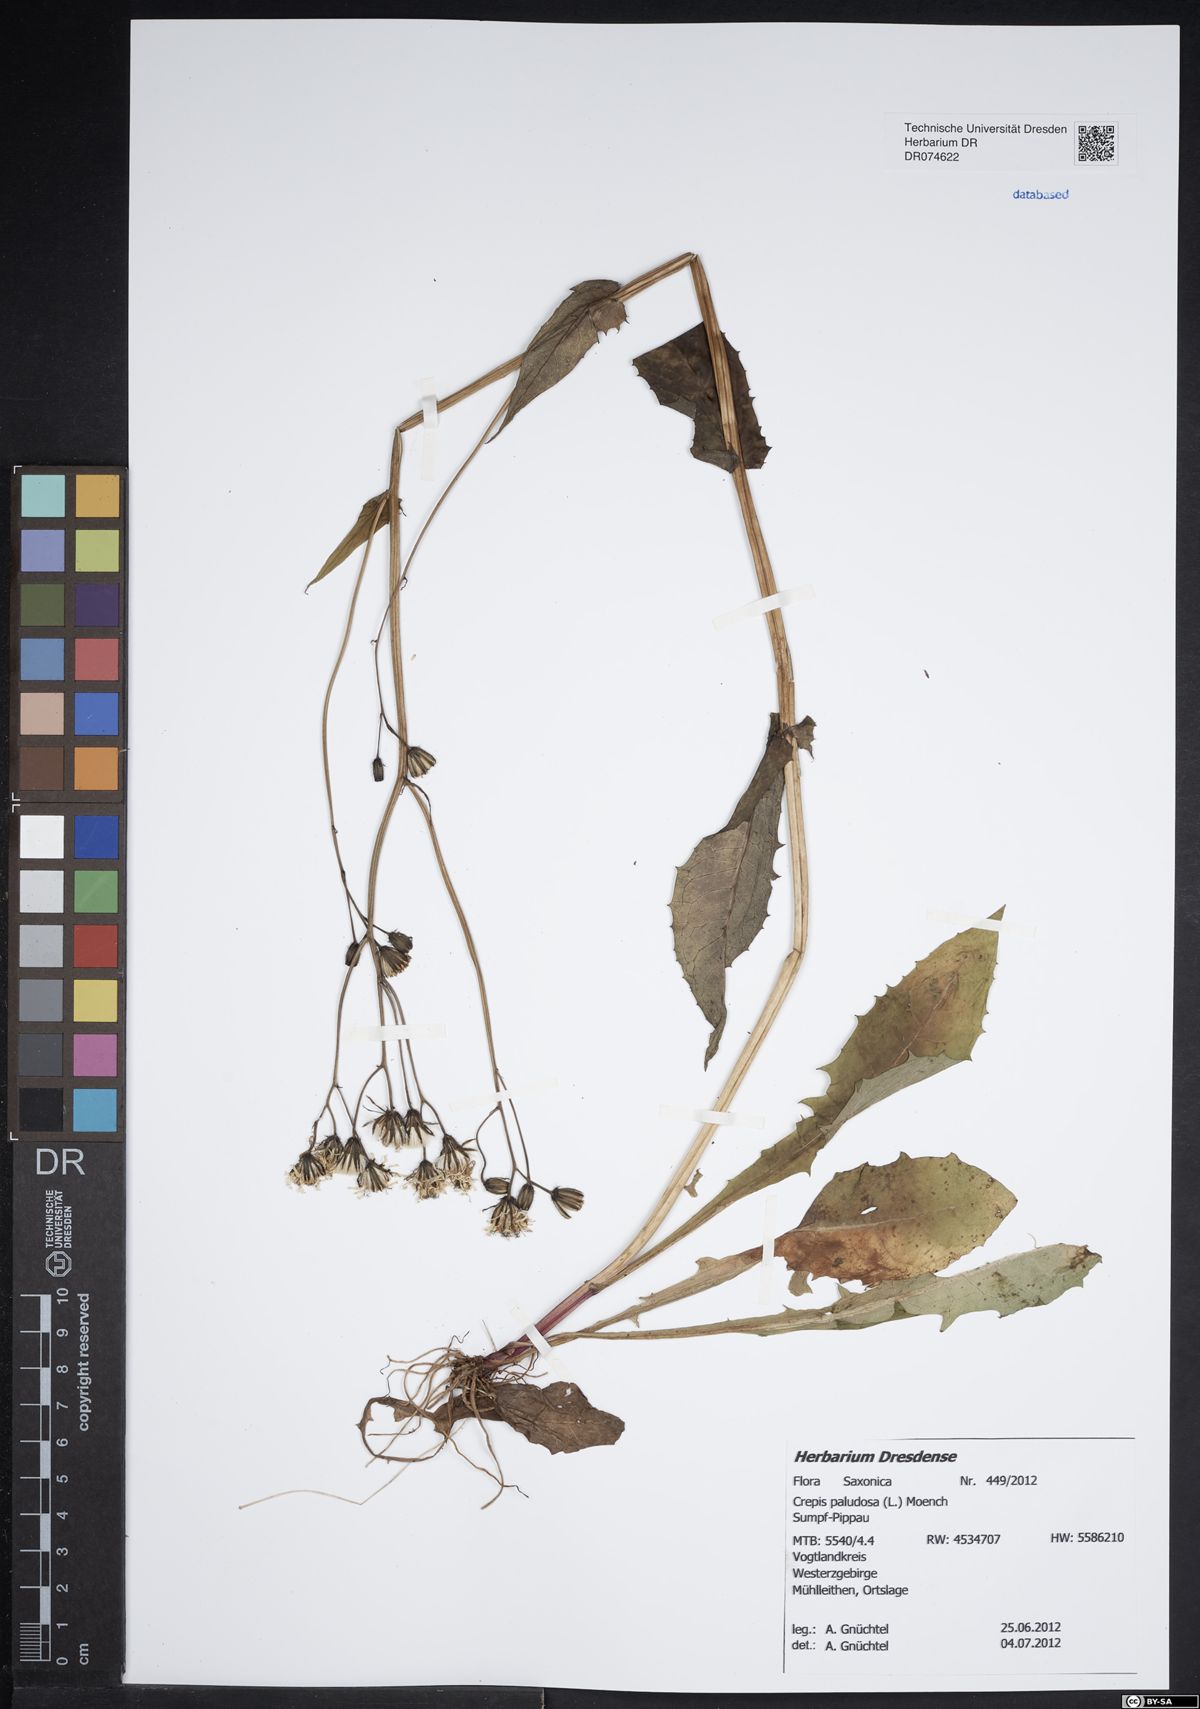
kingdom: Plantae
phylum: Tracheophyta
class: Magnoliopsida
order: Asterales
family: Asteraceae
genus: Crepis
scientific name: Crepis paludosa
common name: Marsh hawk's-beard
